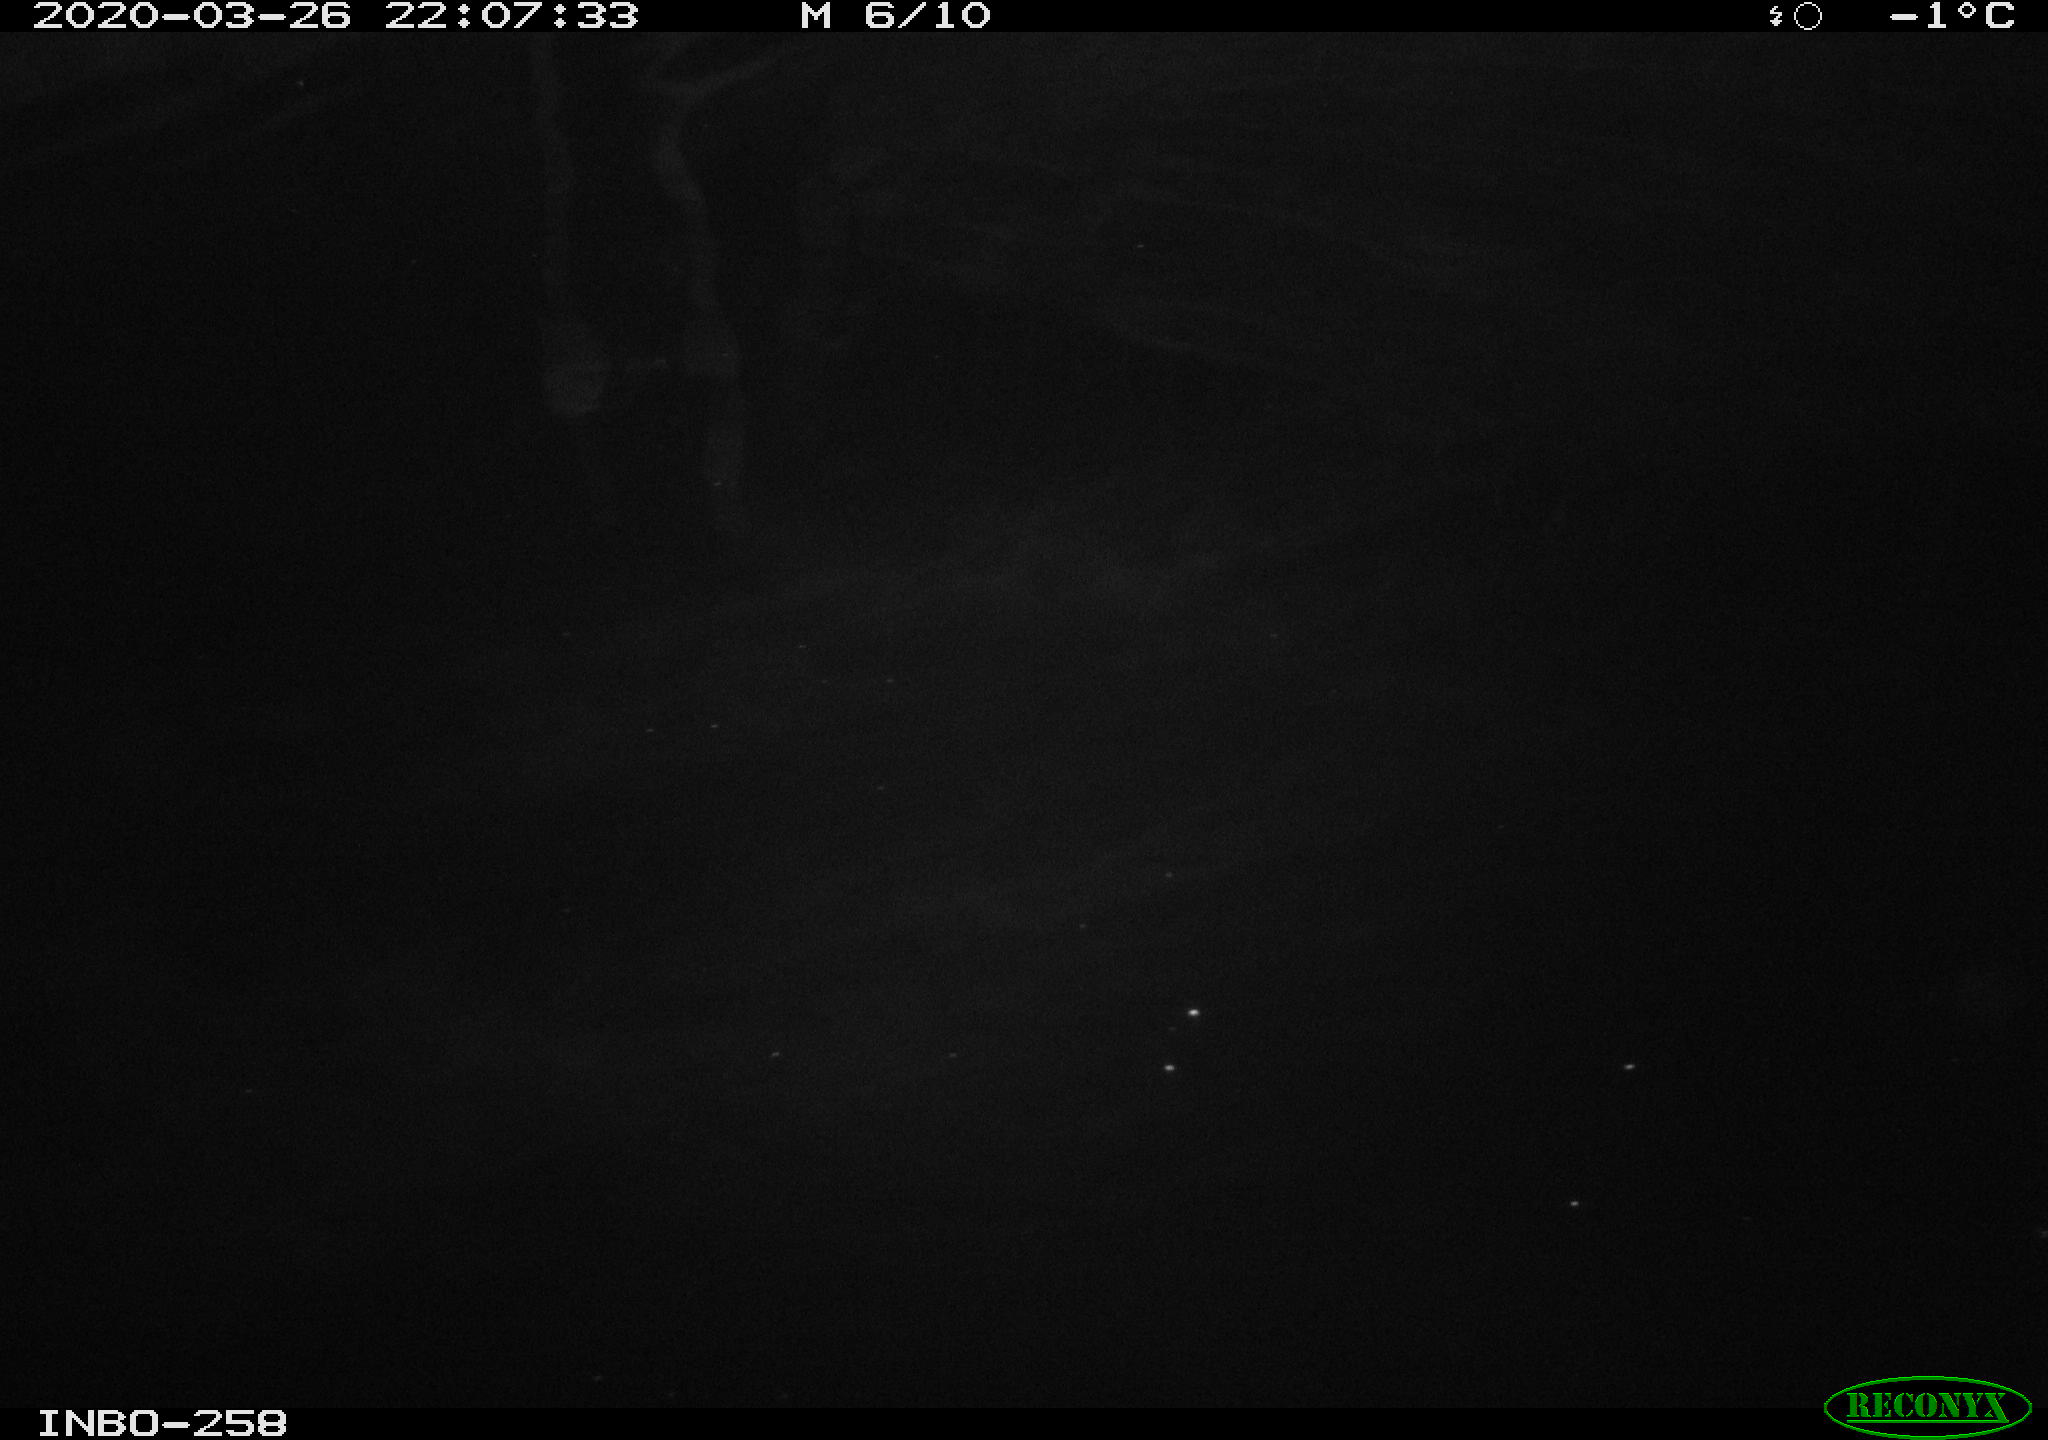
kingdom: Animalia
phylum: Chordata
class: Aves
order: Anseriformes
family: Anatidae
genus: Anas
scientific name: Anas platyrhynchos
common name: Mallard
